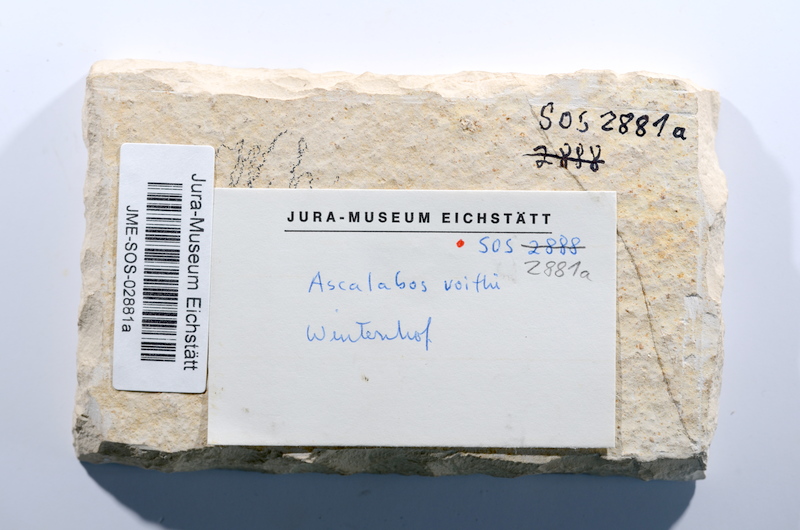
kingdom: Animalia
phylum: Chordata
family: Ascalaboidae
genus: Ascalabos
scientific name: Ascalabos voithii
